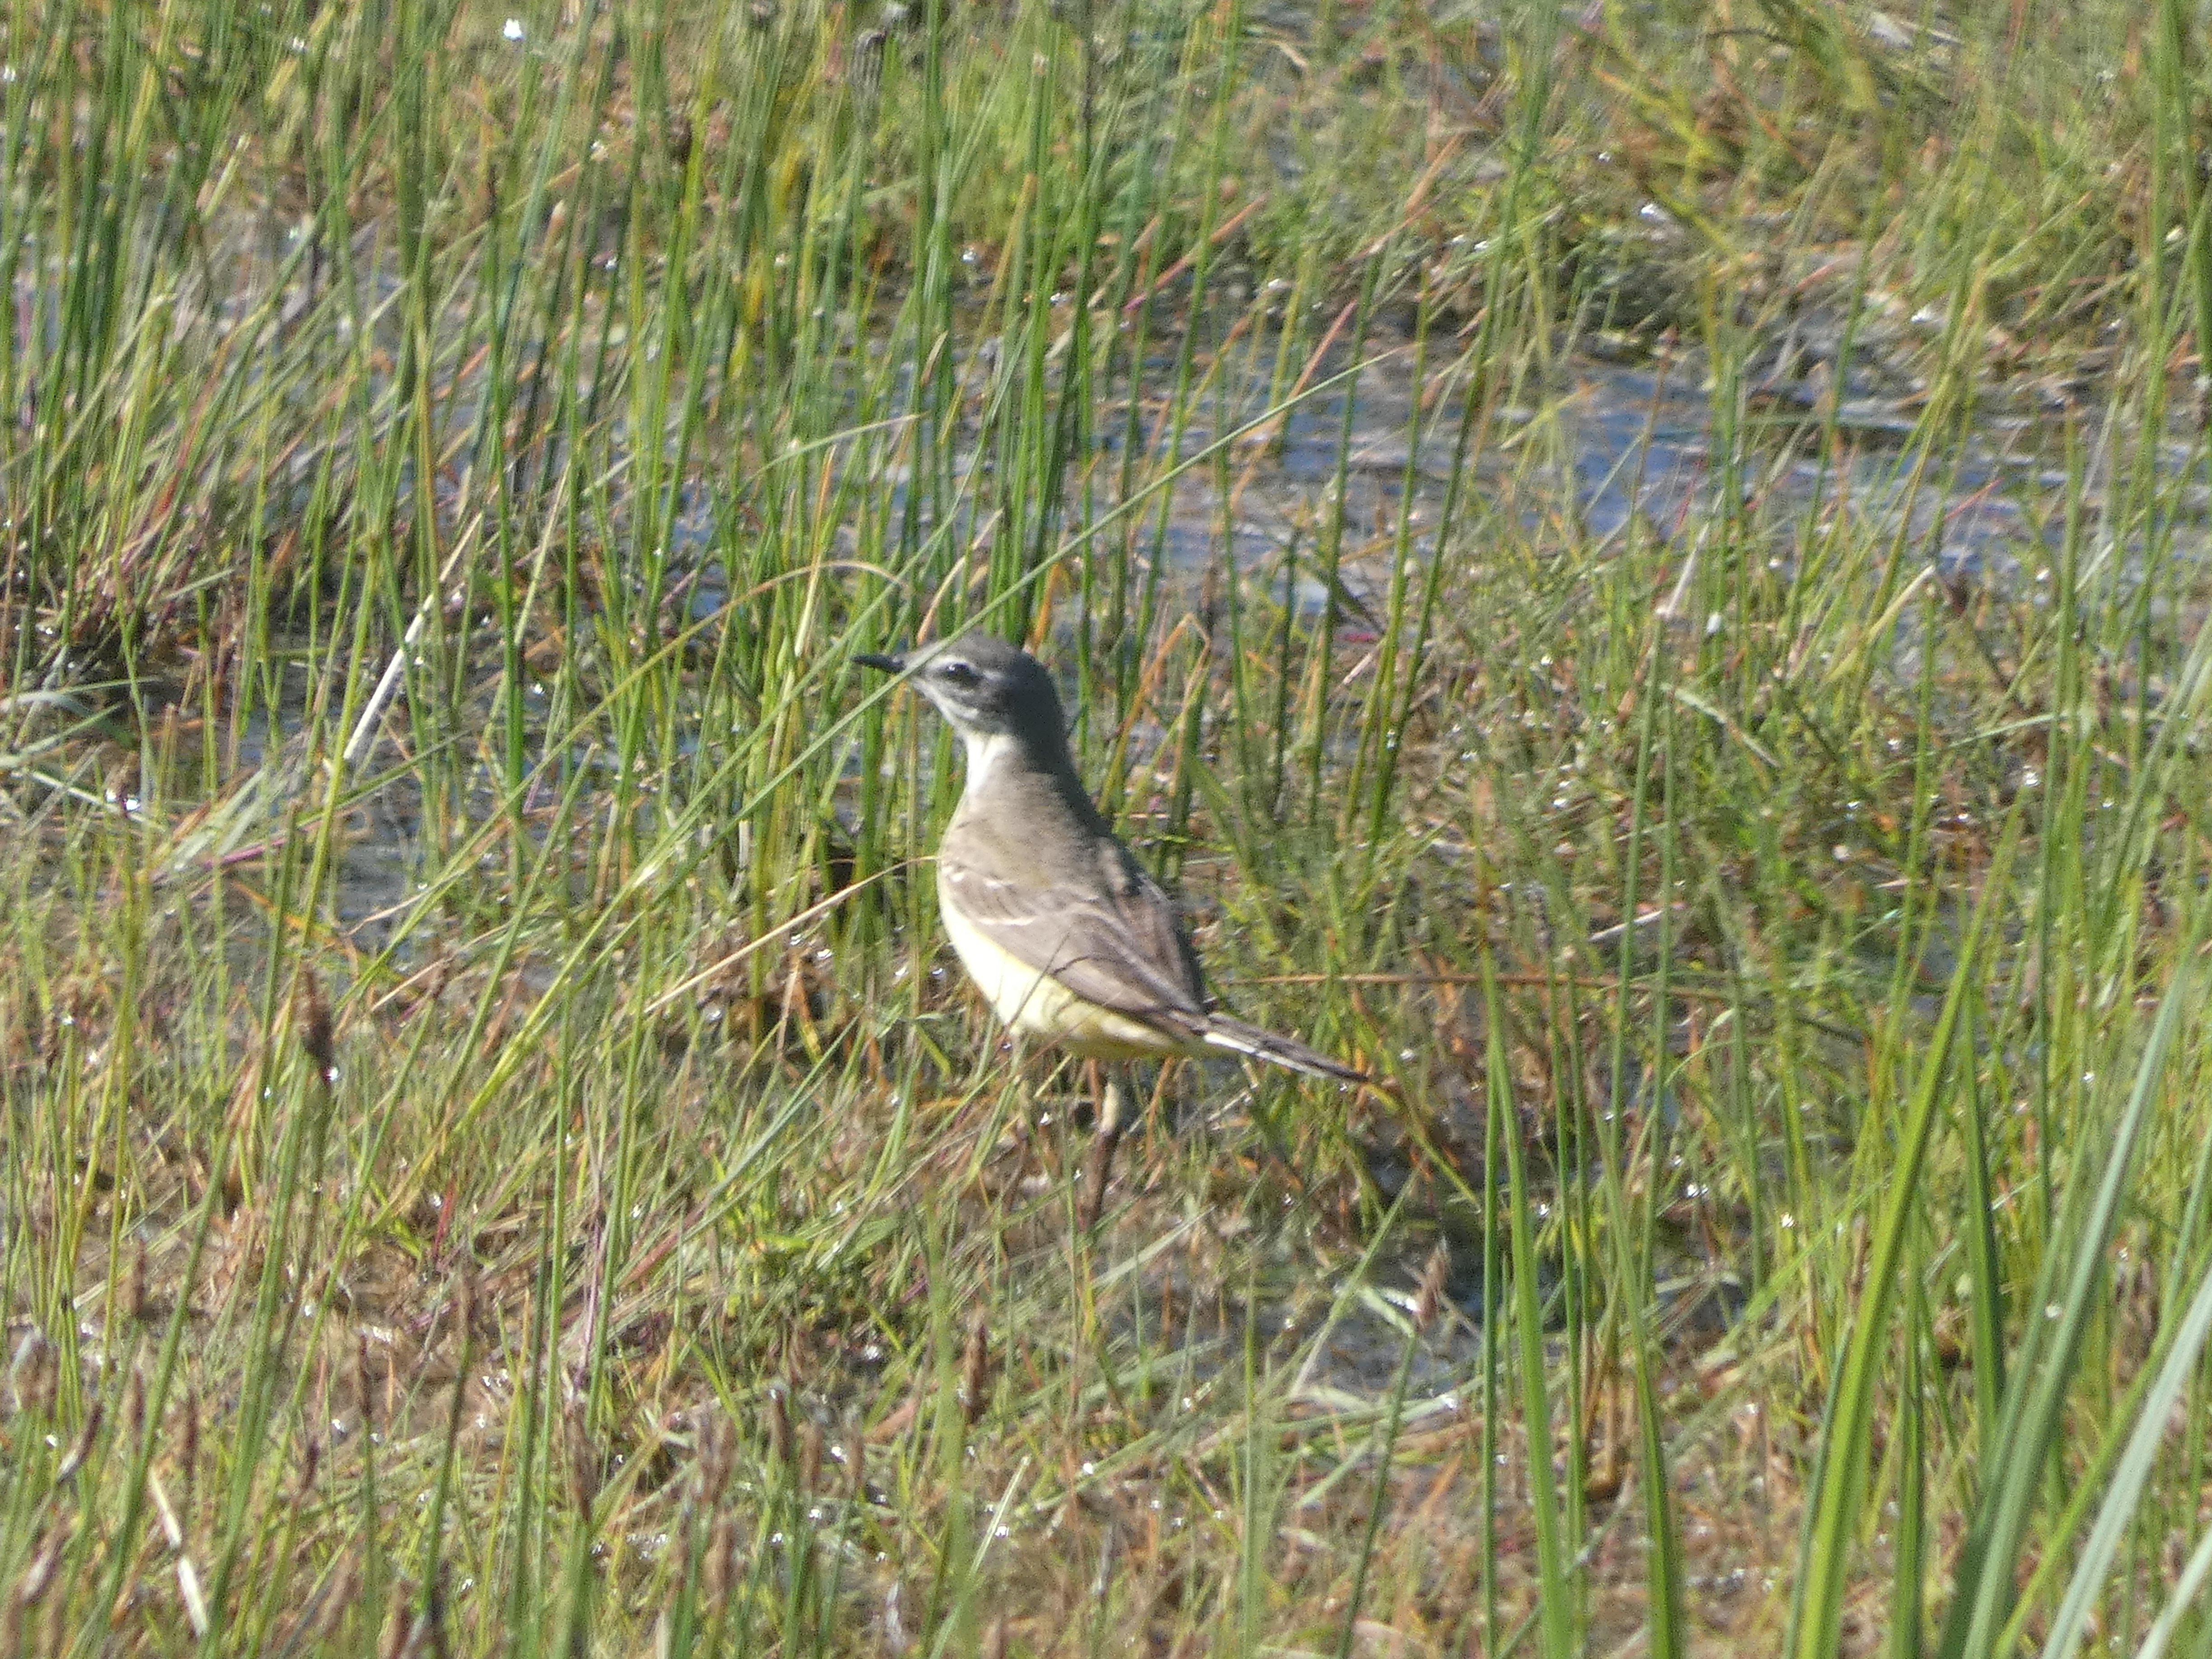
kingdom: Animalia
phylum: Chordata
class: Aves
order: Passeriformes
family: Motacillidae
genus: Motacilla
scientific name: Motacilla flava
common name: Gul vipstjert
